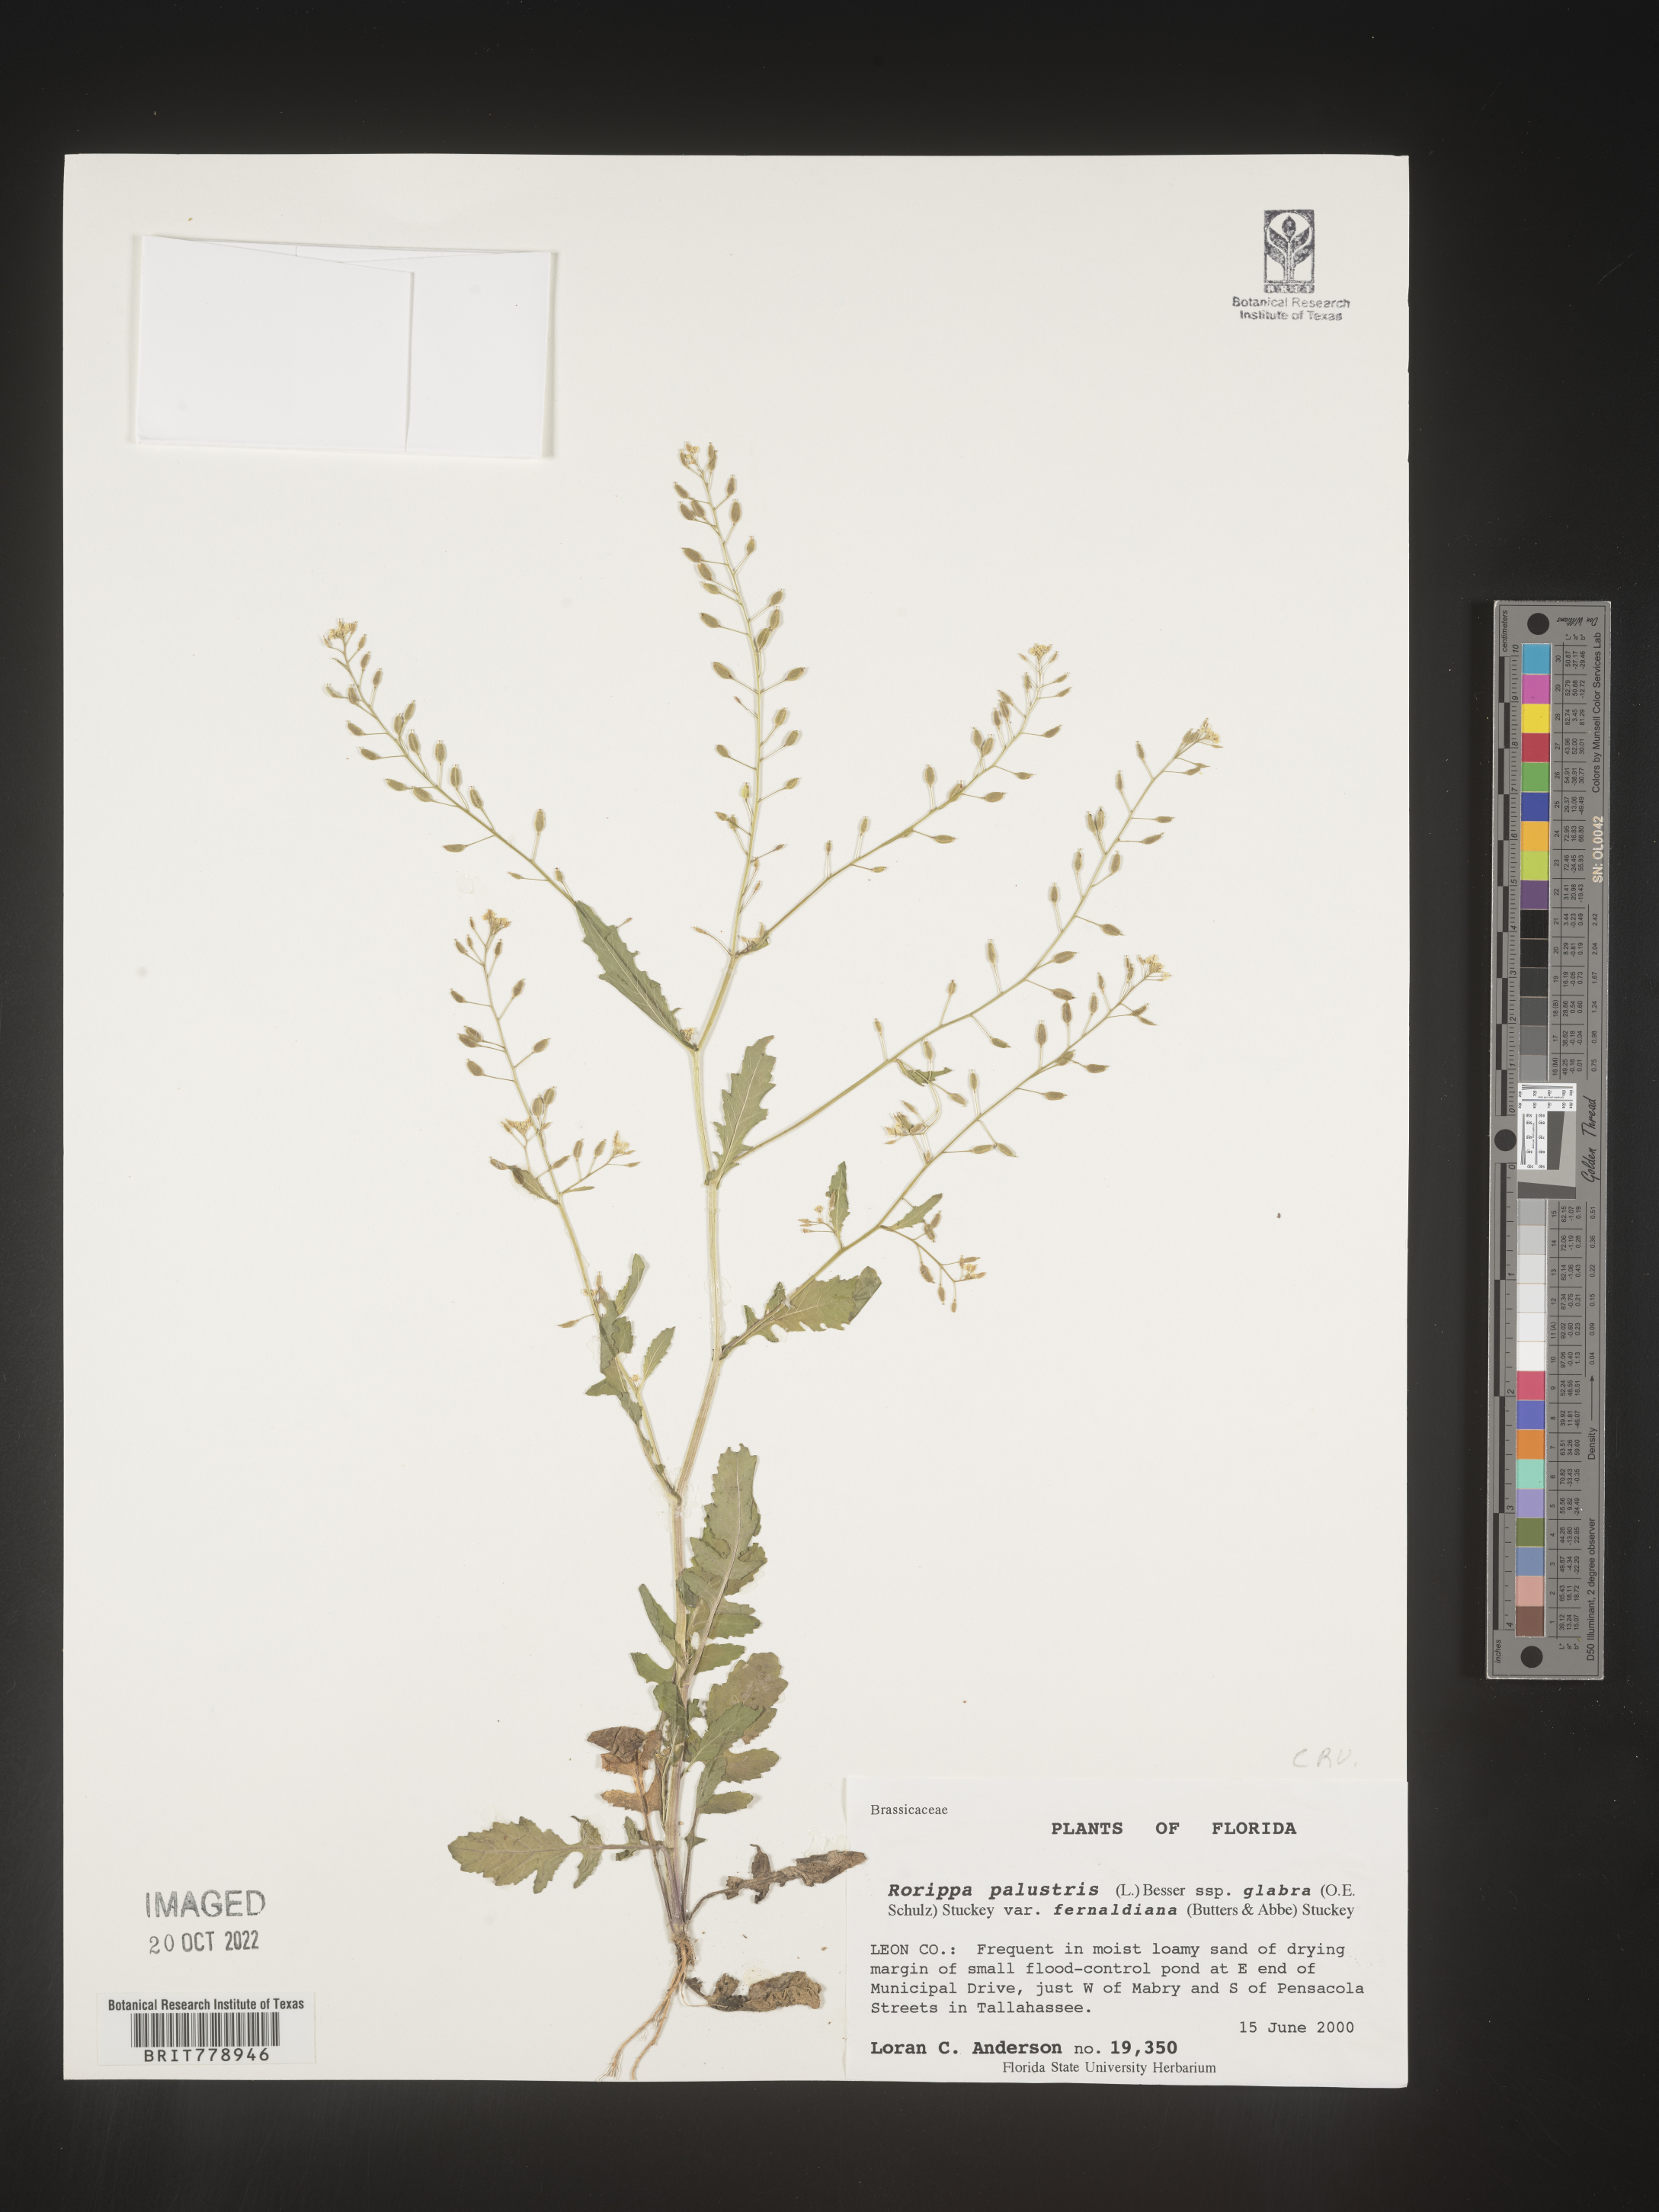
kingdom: Plantae
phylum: Tracheophyta
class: Magnoliopsida
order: Brassicales
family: Brassicaceae
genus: Rorippa
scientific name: Rorippa palustris
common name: Marsh yellow-cress
